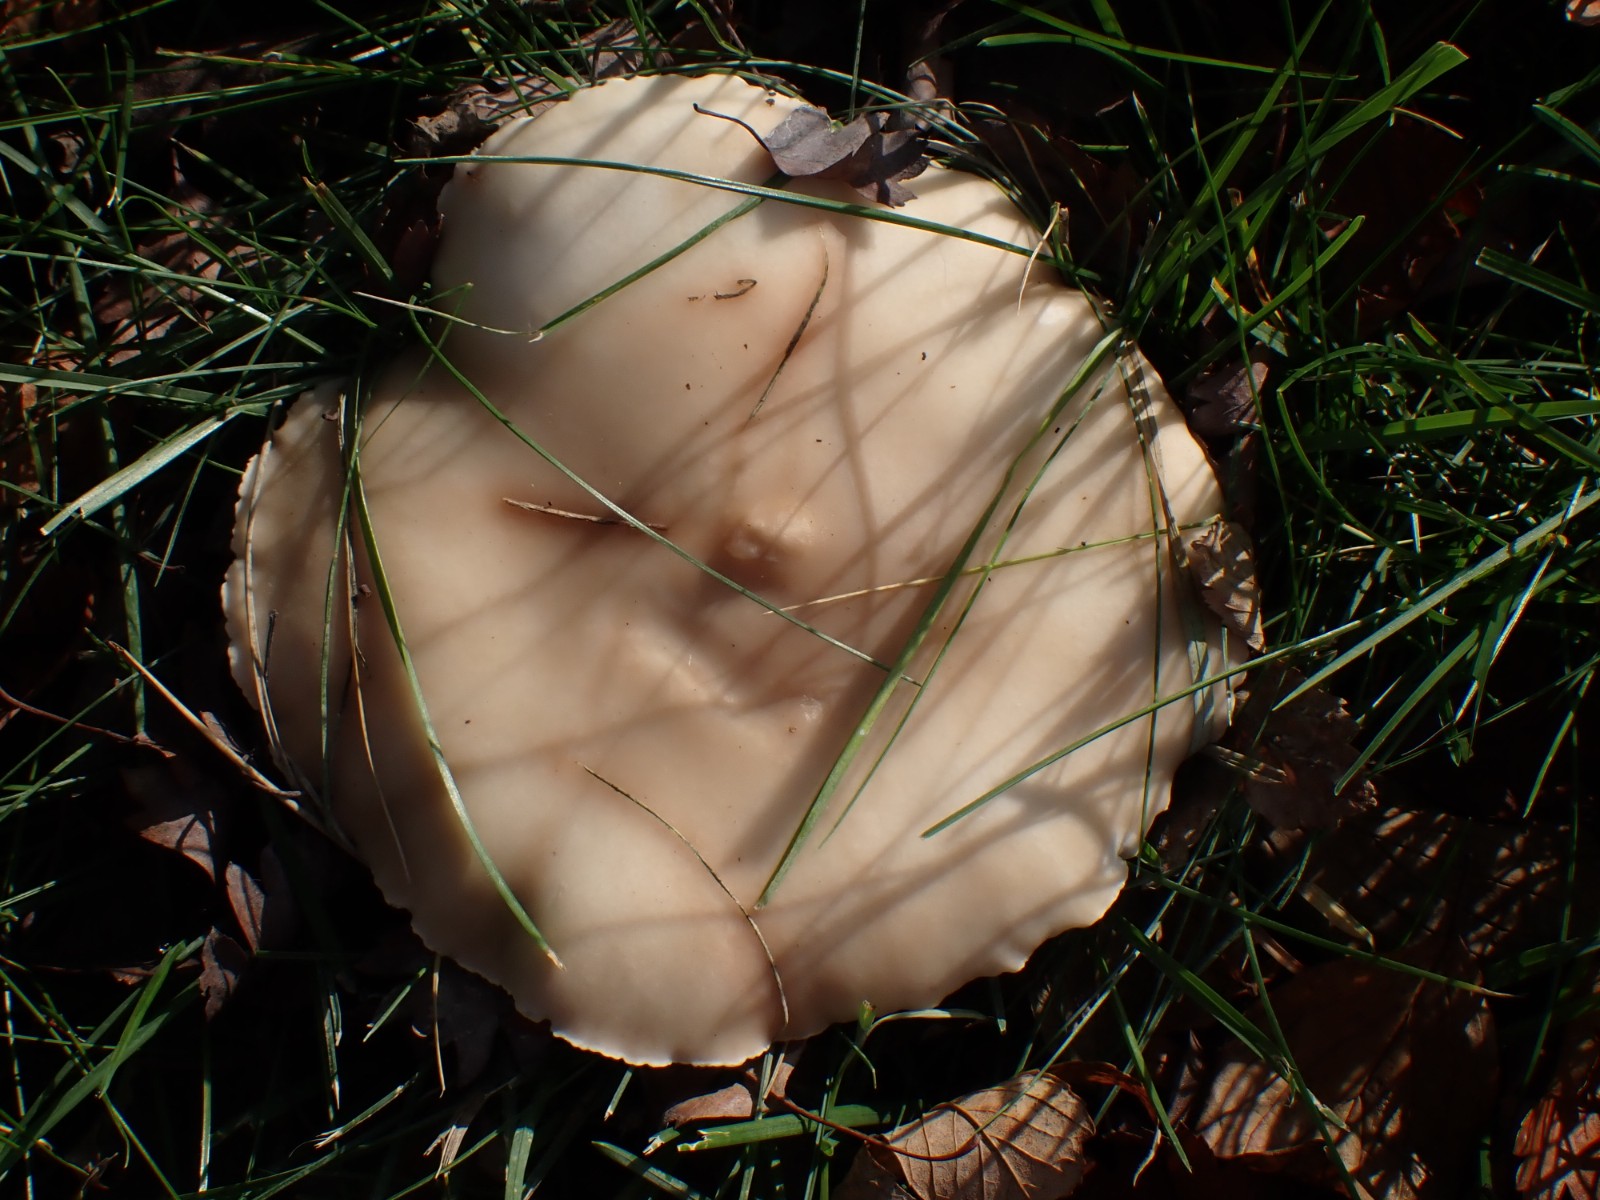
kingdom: Fungi
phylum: Basidiomycota
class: Agaricomycetes
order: Agaricales
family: Tricholomataceae
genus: Lepista
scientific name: Lepista personata
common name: bleg hekseringshat
